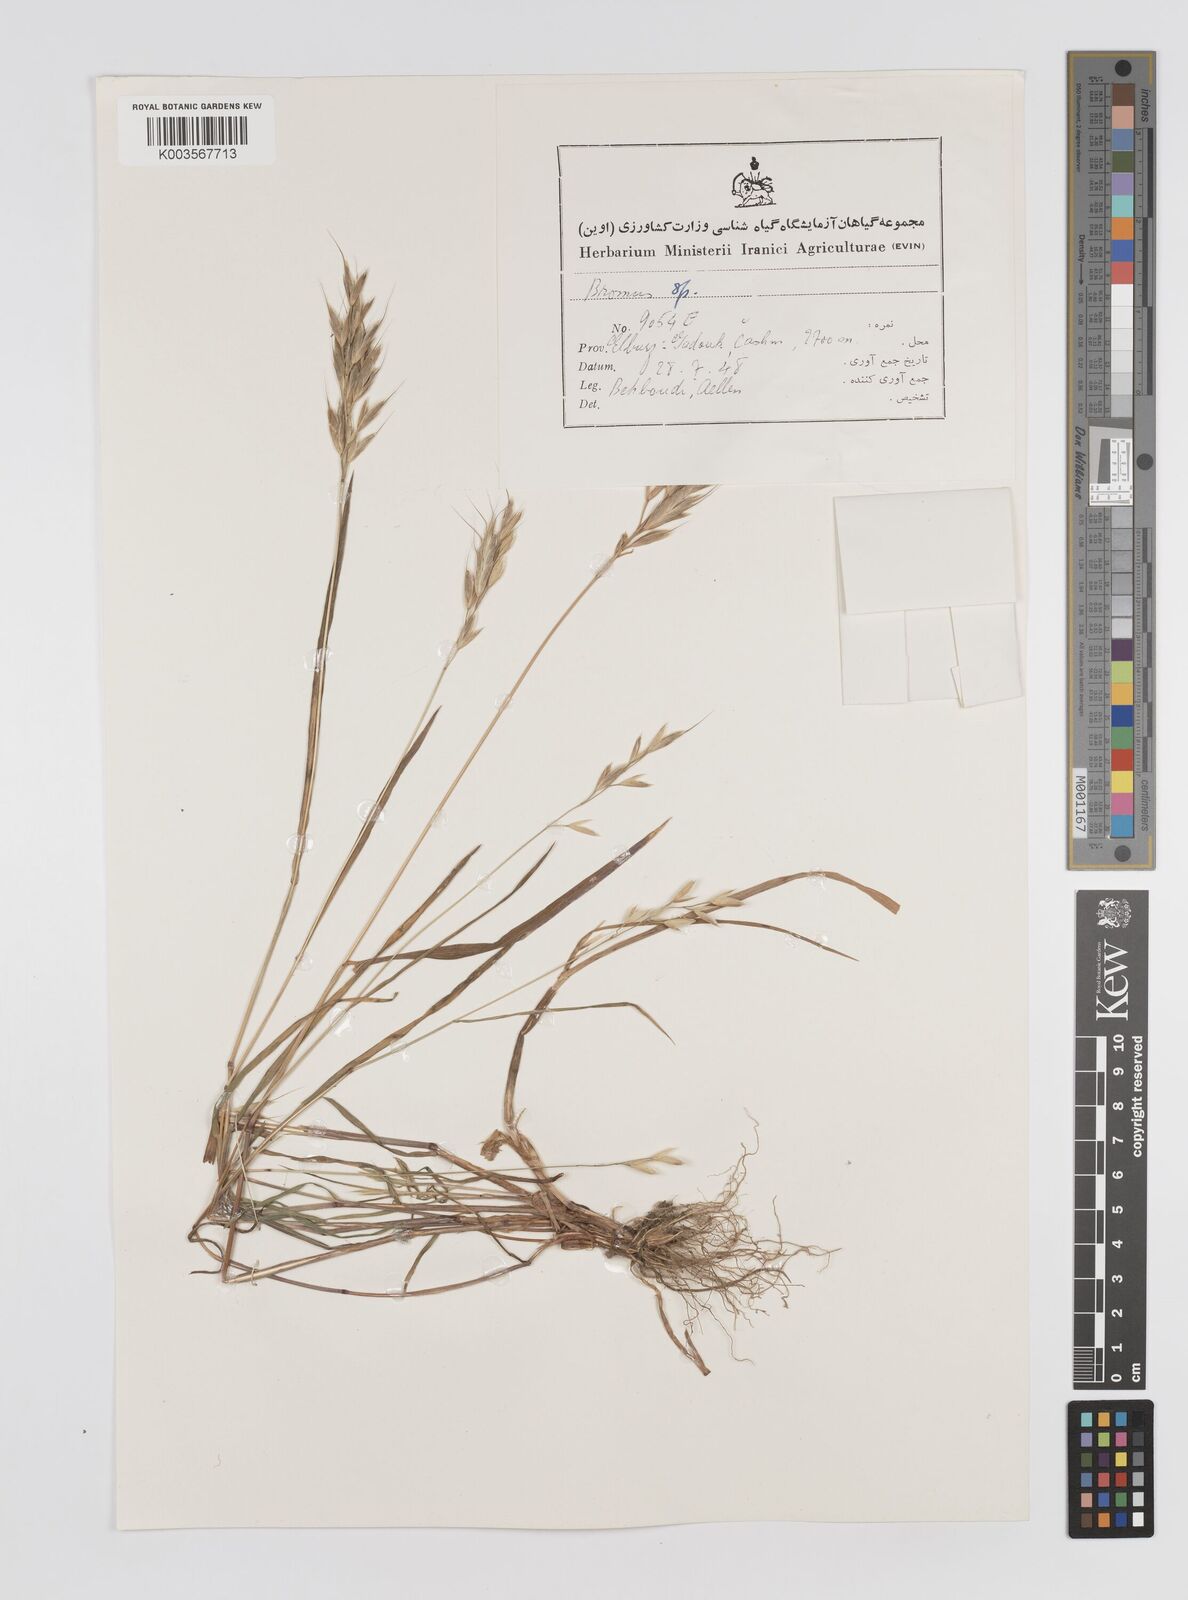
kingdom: Plantae
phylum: Tracheophyta
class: Liliopsida
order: Poales
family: Poaceae
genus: Bromus
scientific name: Bromus
